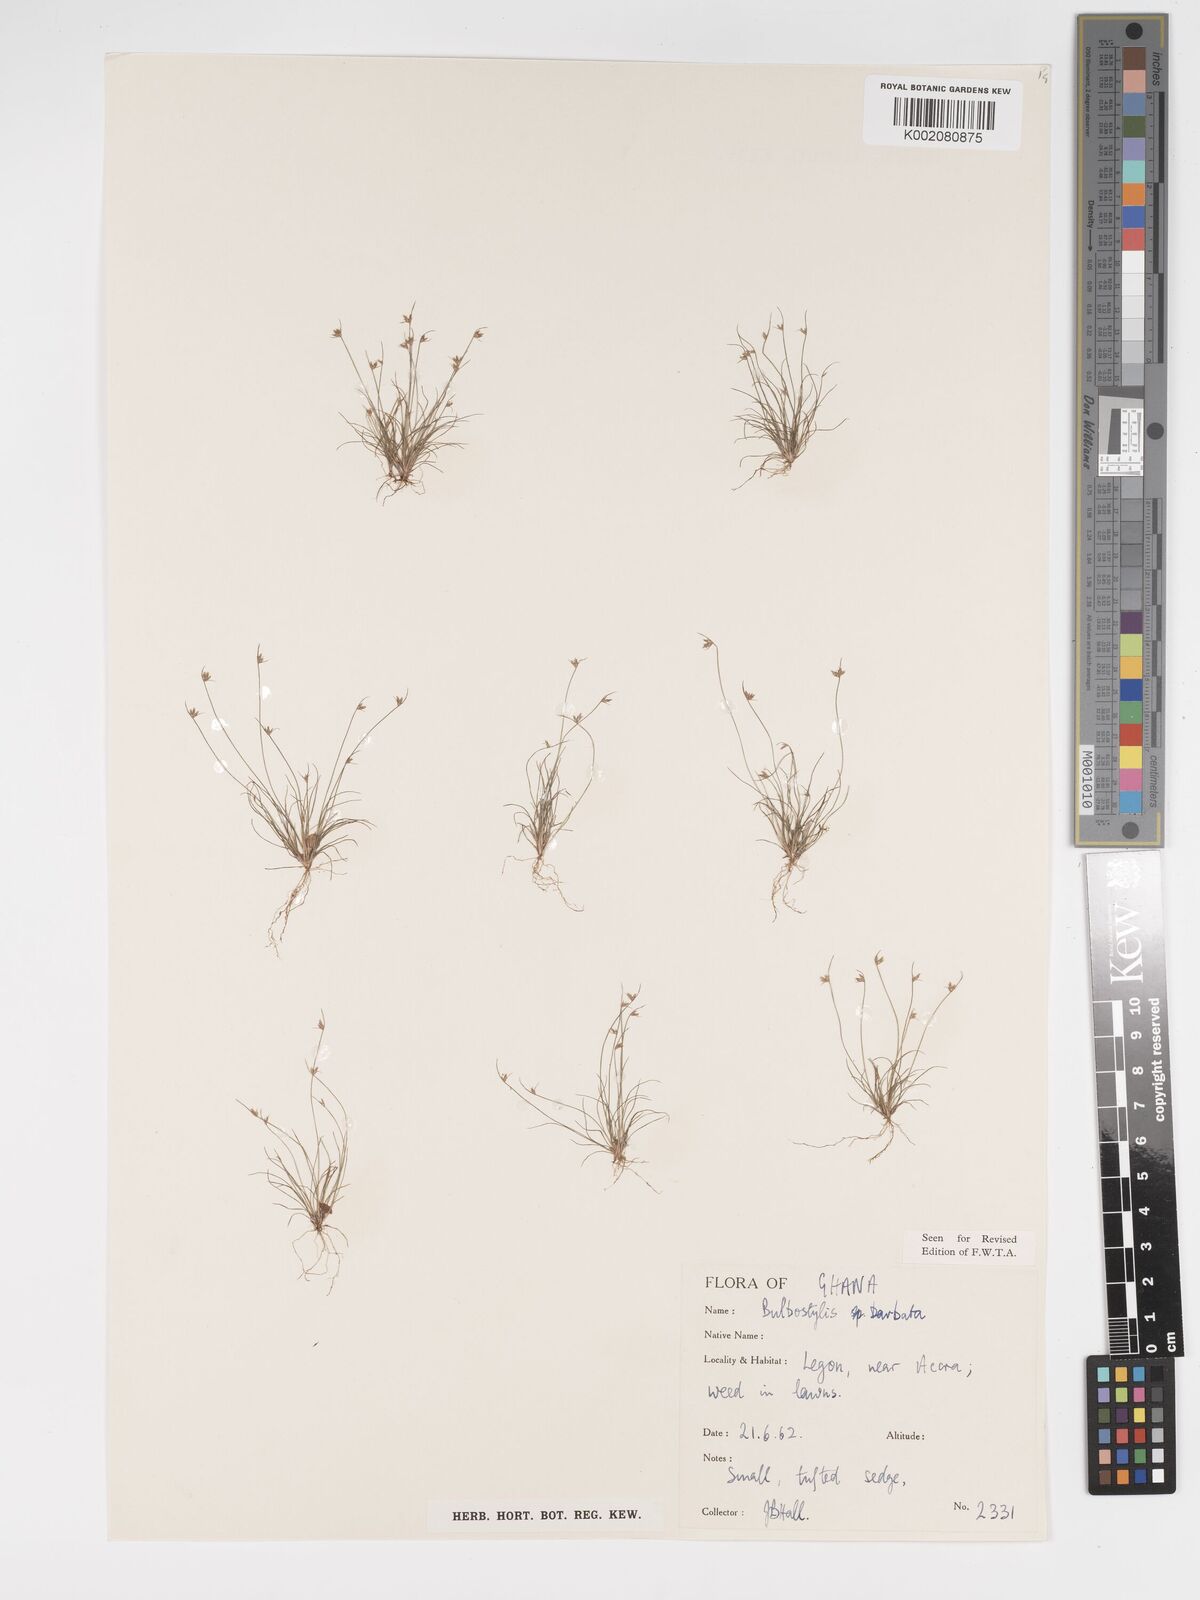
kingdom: Plantae
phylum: Tracheophyta
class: Liliopsida
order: Poales
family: Cyperaceae
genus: Bulbostylis
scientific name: Bulbostylis barbata
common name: Watergrass
